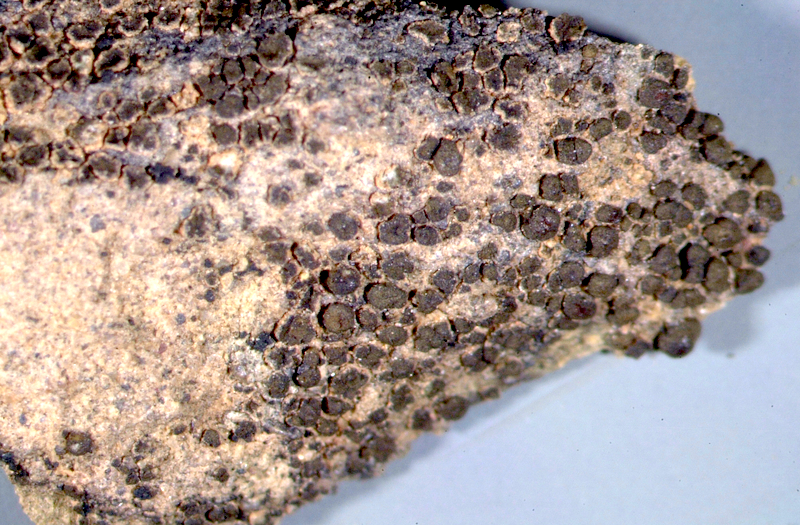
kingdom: Fungi
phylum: Ascomycota
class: Lichinomycetes
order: Lichinales
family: Peltulaceae
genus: Peltula
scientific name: Peltula coriacea
